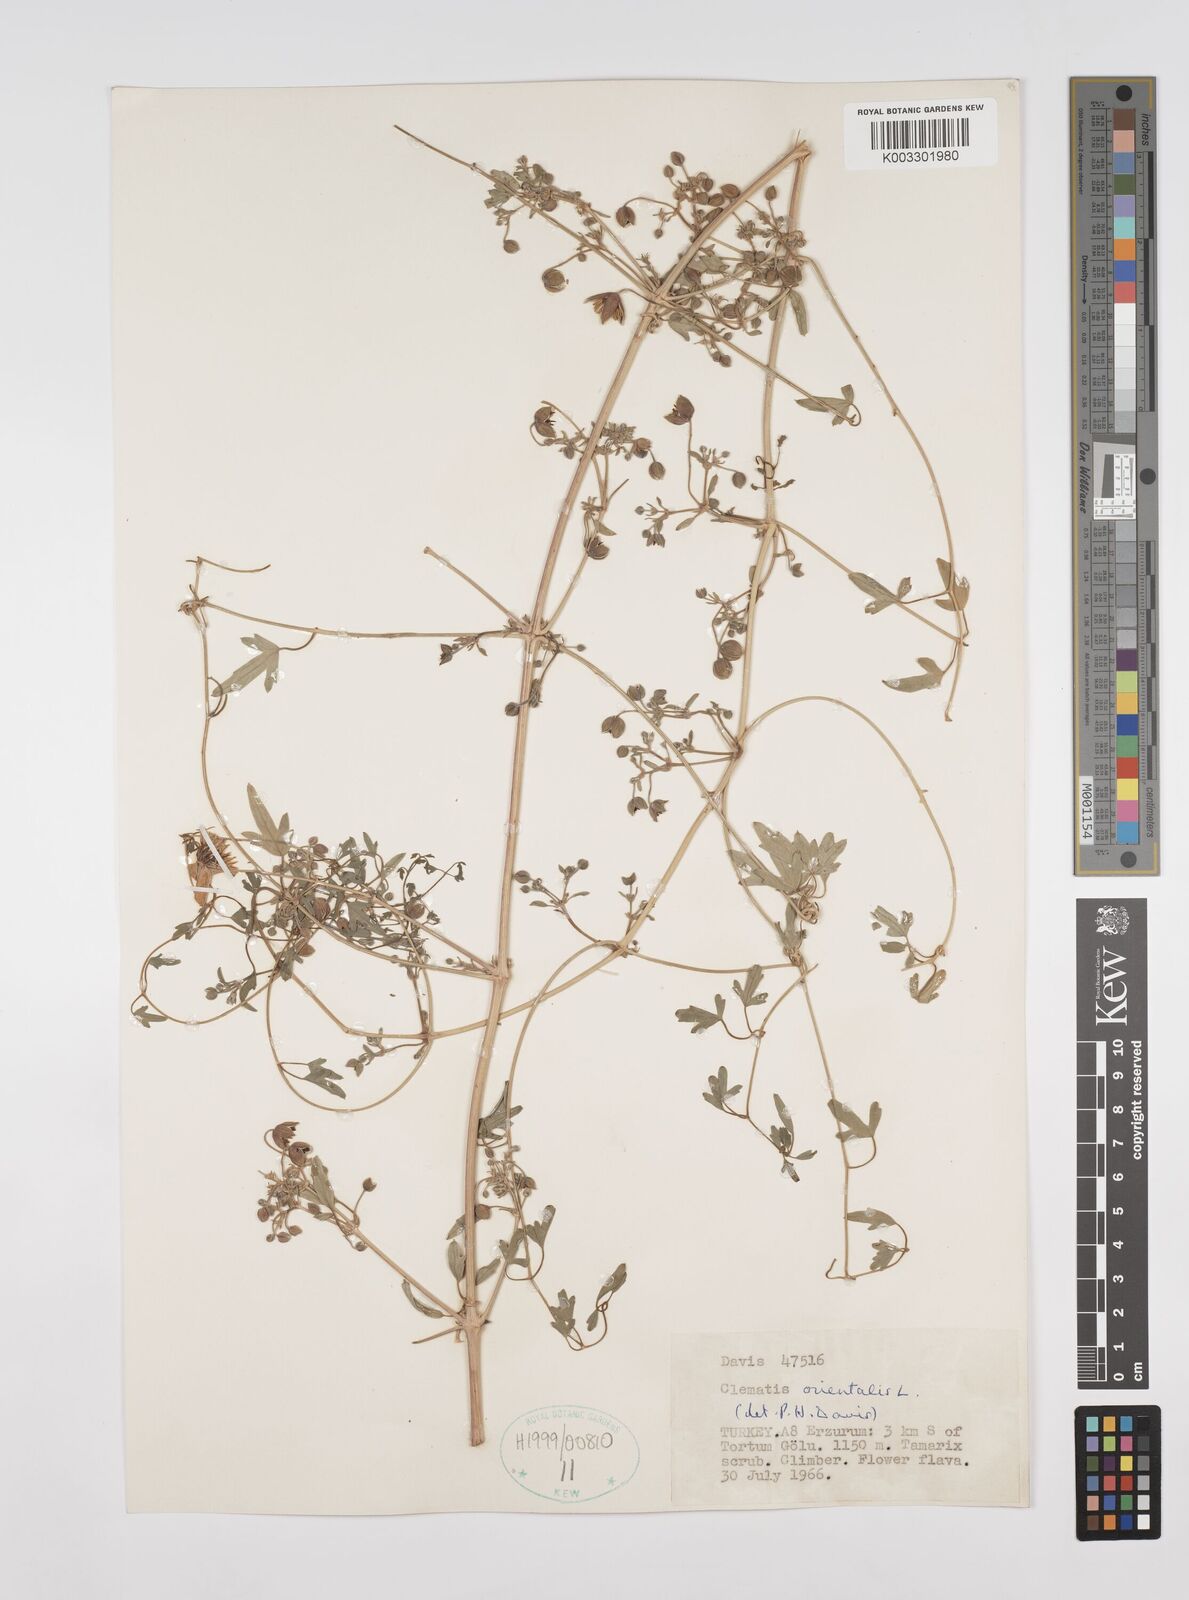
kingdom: Plantae
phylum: Tracheophyta
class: Magnoliopsida
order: Ranunculales
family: Ranunculaceae
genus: Clematis
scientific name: Clematis orientalis
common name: Oriental virgin's-bower
